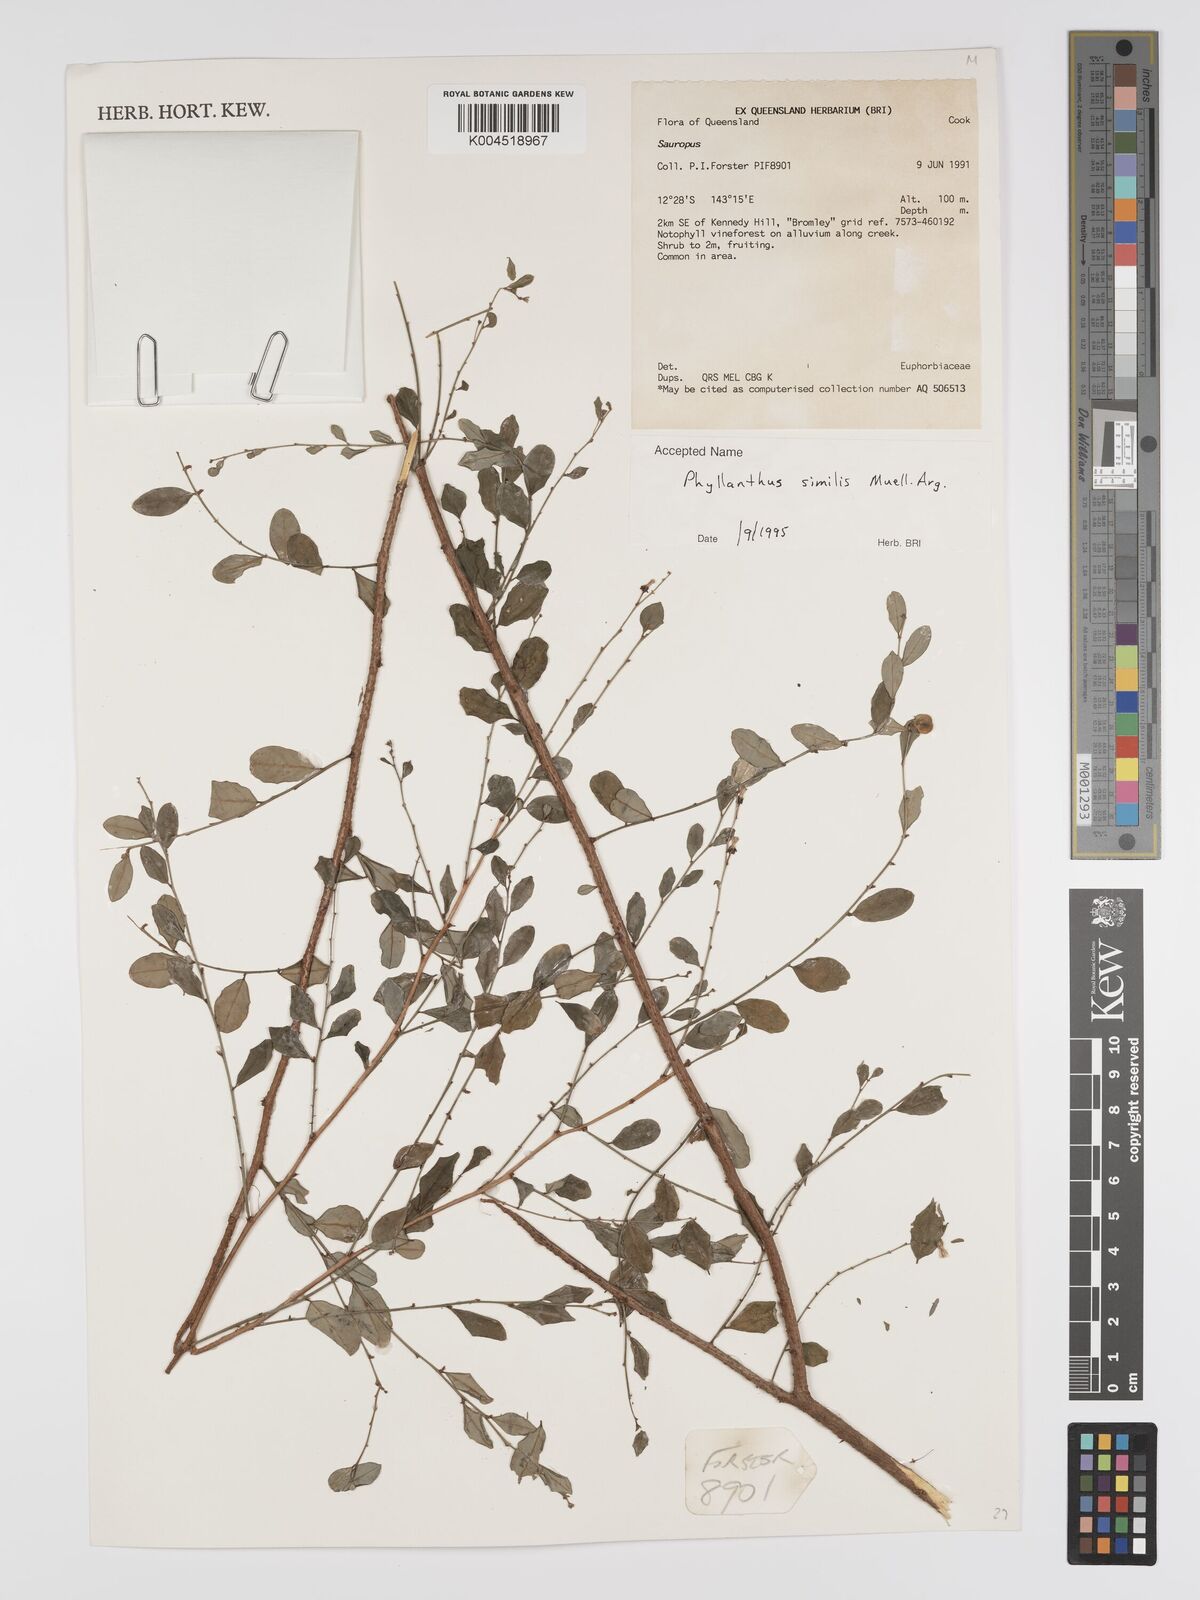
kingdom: Plantae
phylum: Tracheophyta
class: Magnoliopsida
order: Malpighiales
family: Phyllanthaceae
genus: Phyllanthus
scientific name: Phyllanthus similis
